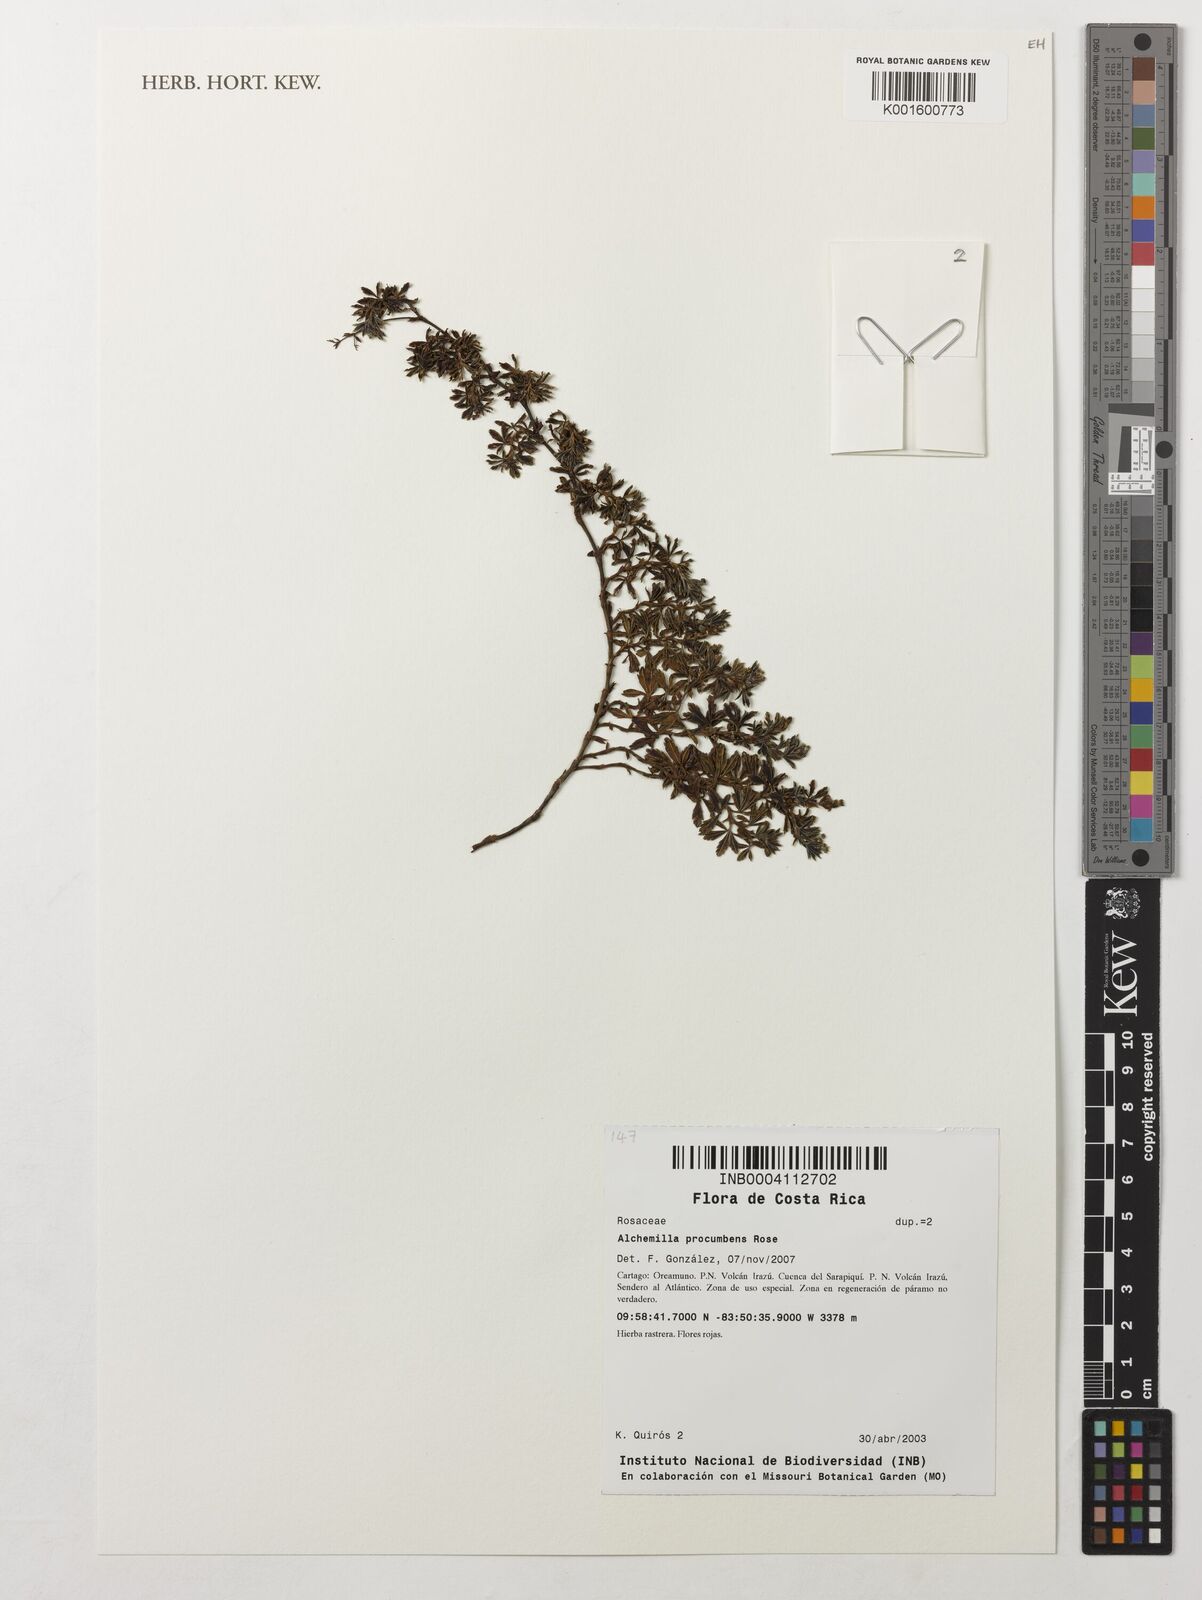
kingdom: Plantae
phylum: Tracheophyta
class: Magnoliopsida
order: Rosales
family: Rosaceae
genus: Lachemilla
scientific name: Lachemilla procumbens
